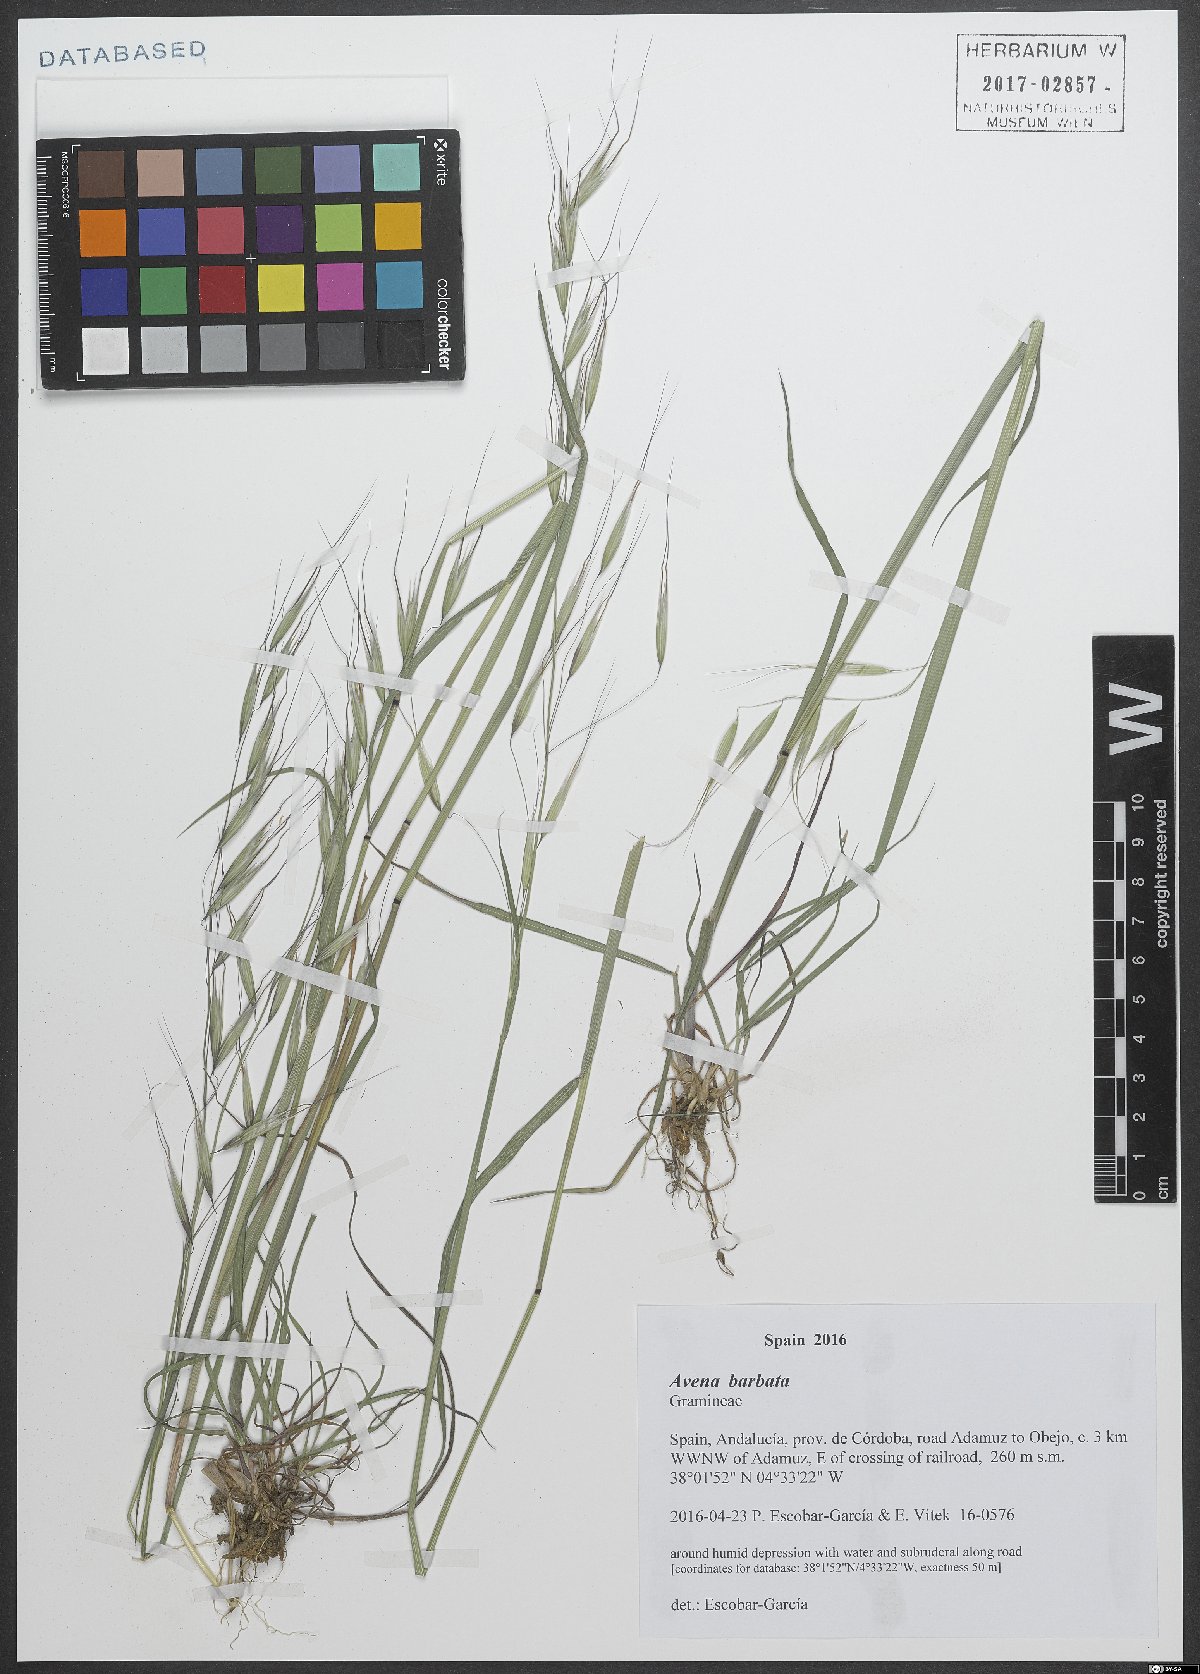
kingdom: Plantae
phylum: Tracheophyta
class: Liliopsida
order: Poales
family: Poaceae
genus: Avena
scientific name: Avena barbata
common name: Slender oat
